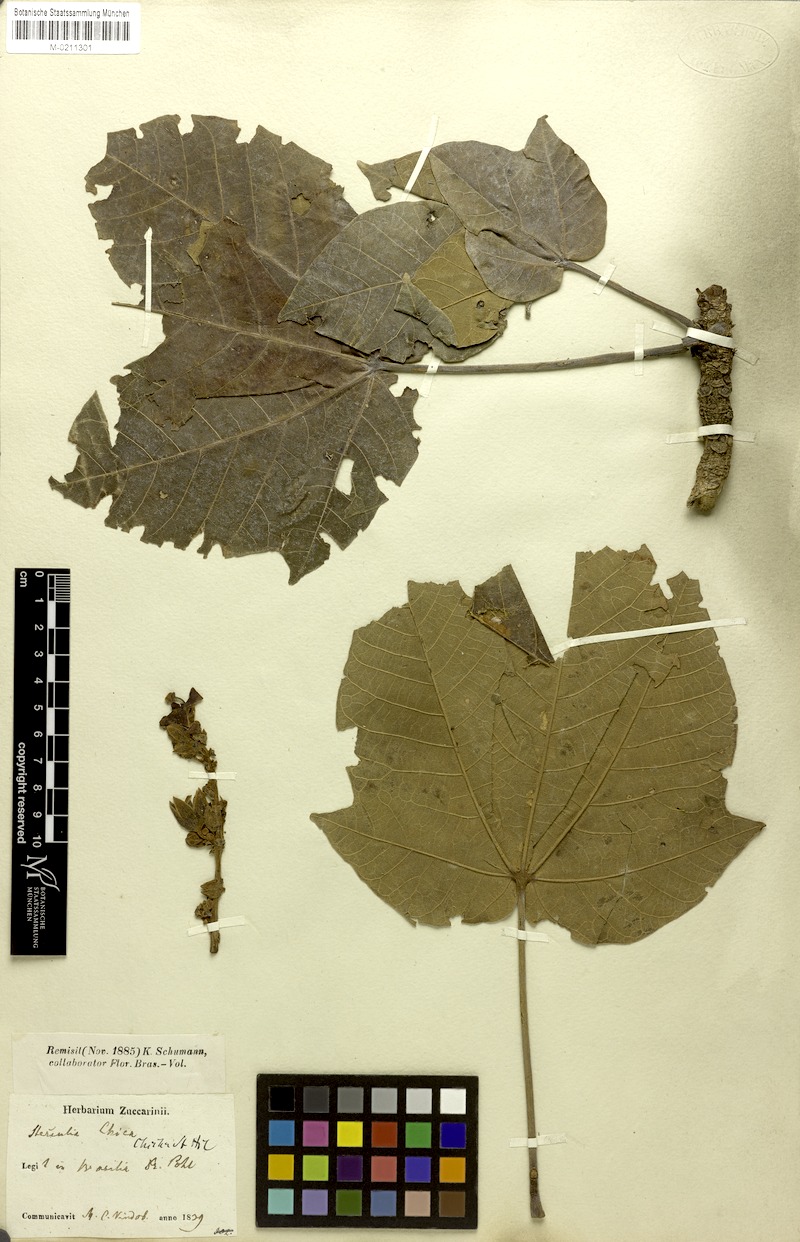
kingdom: Plantae
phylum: Tracheophyta
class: Magnoliopsida
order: Malvales
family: Malvaceae
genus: Sterculia
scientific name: Sterculia apetala
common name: Panama tree
